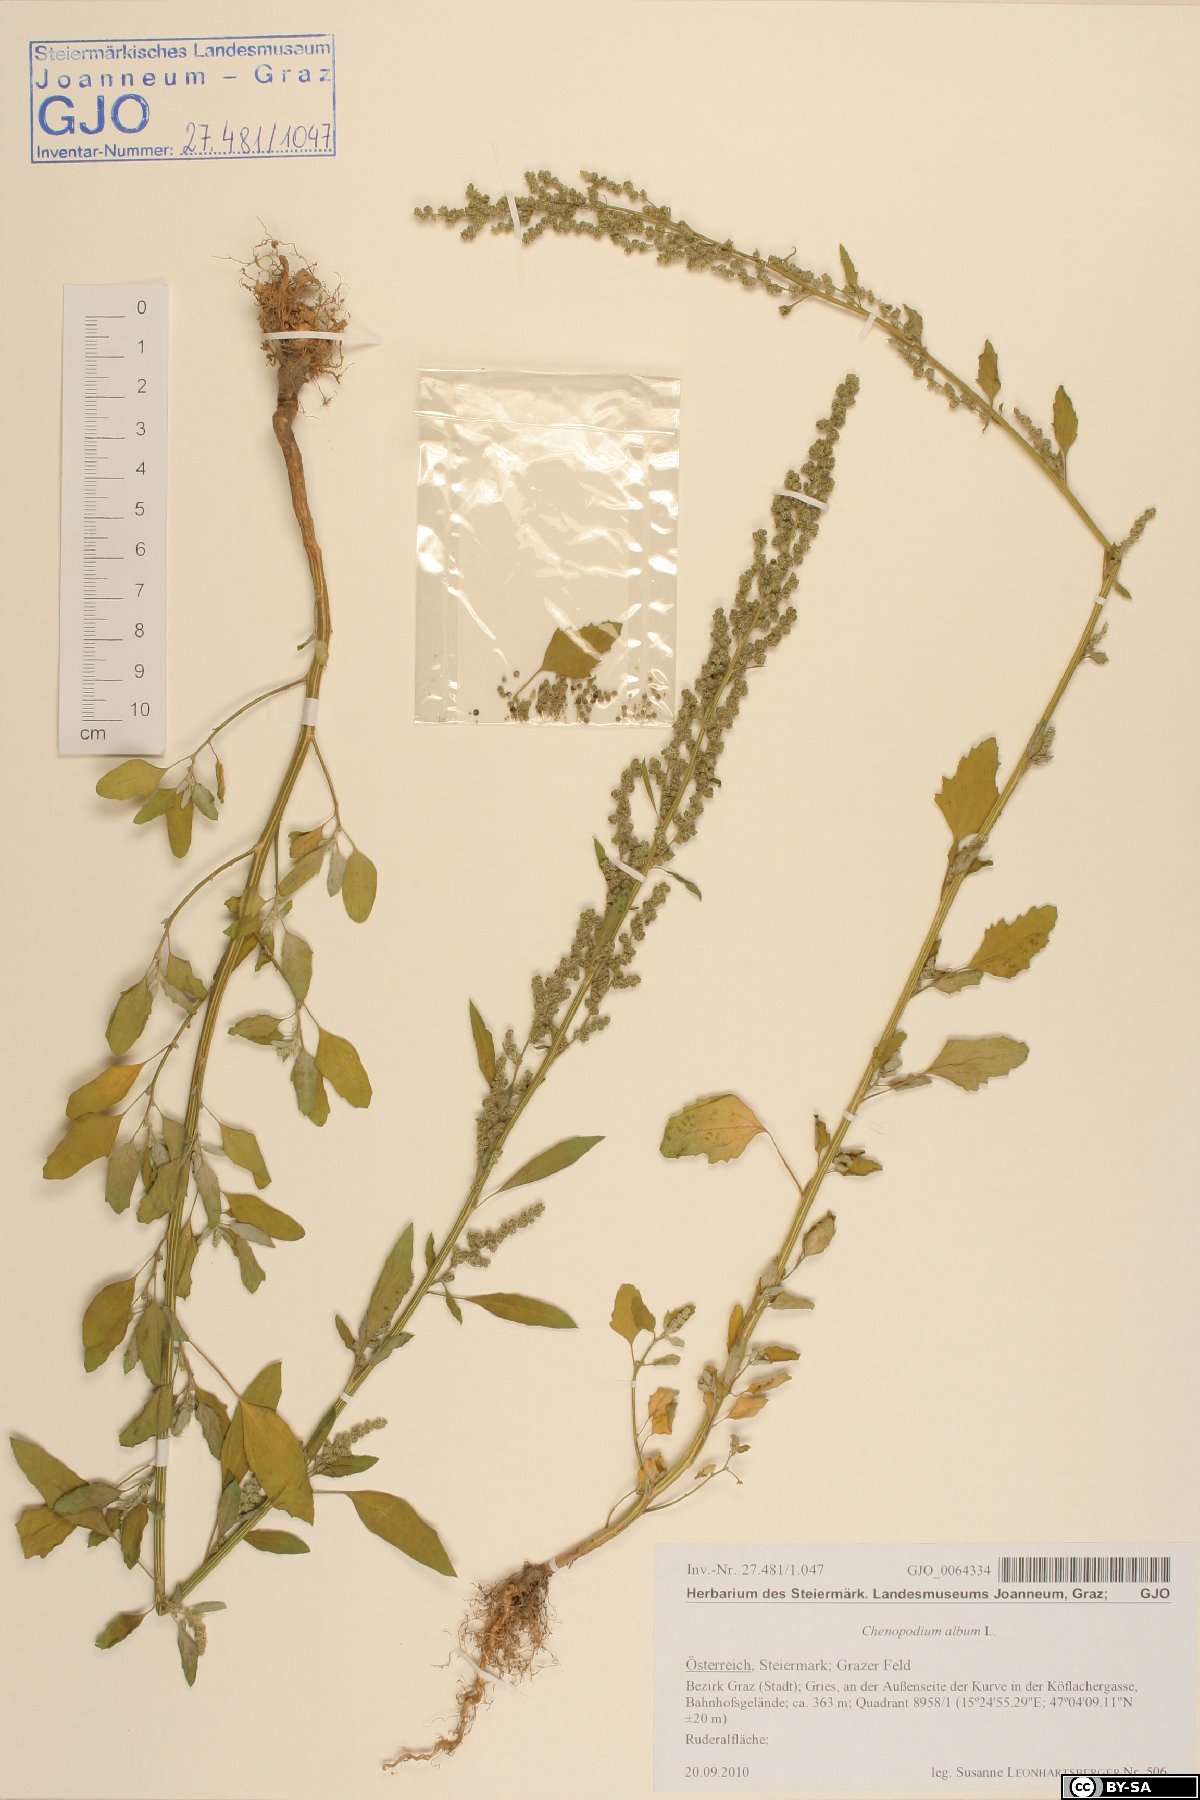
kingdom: Plantae
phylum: Tracheophyta
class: Magnoliopsida
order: Caryophyllales
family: Amaranthaceae
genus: Chenopodium
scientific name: Chenopodium album
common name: Fat-hen
